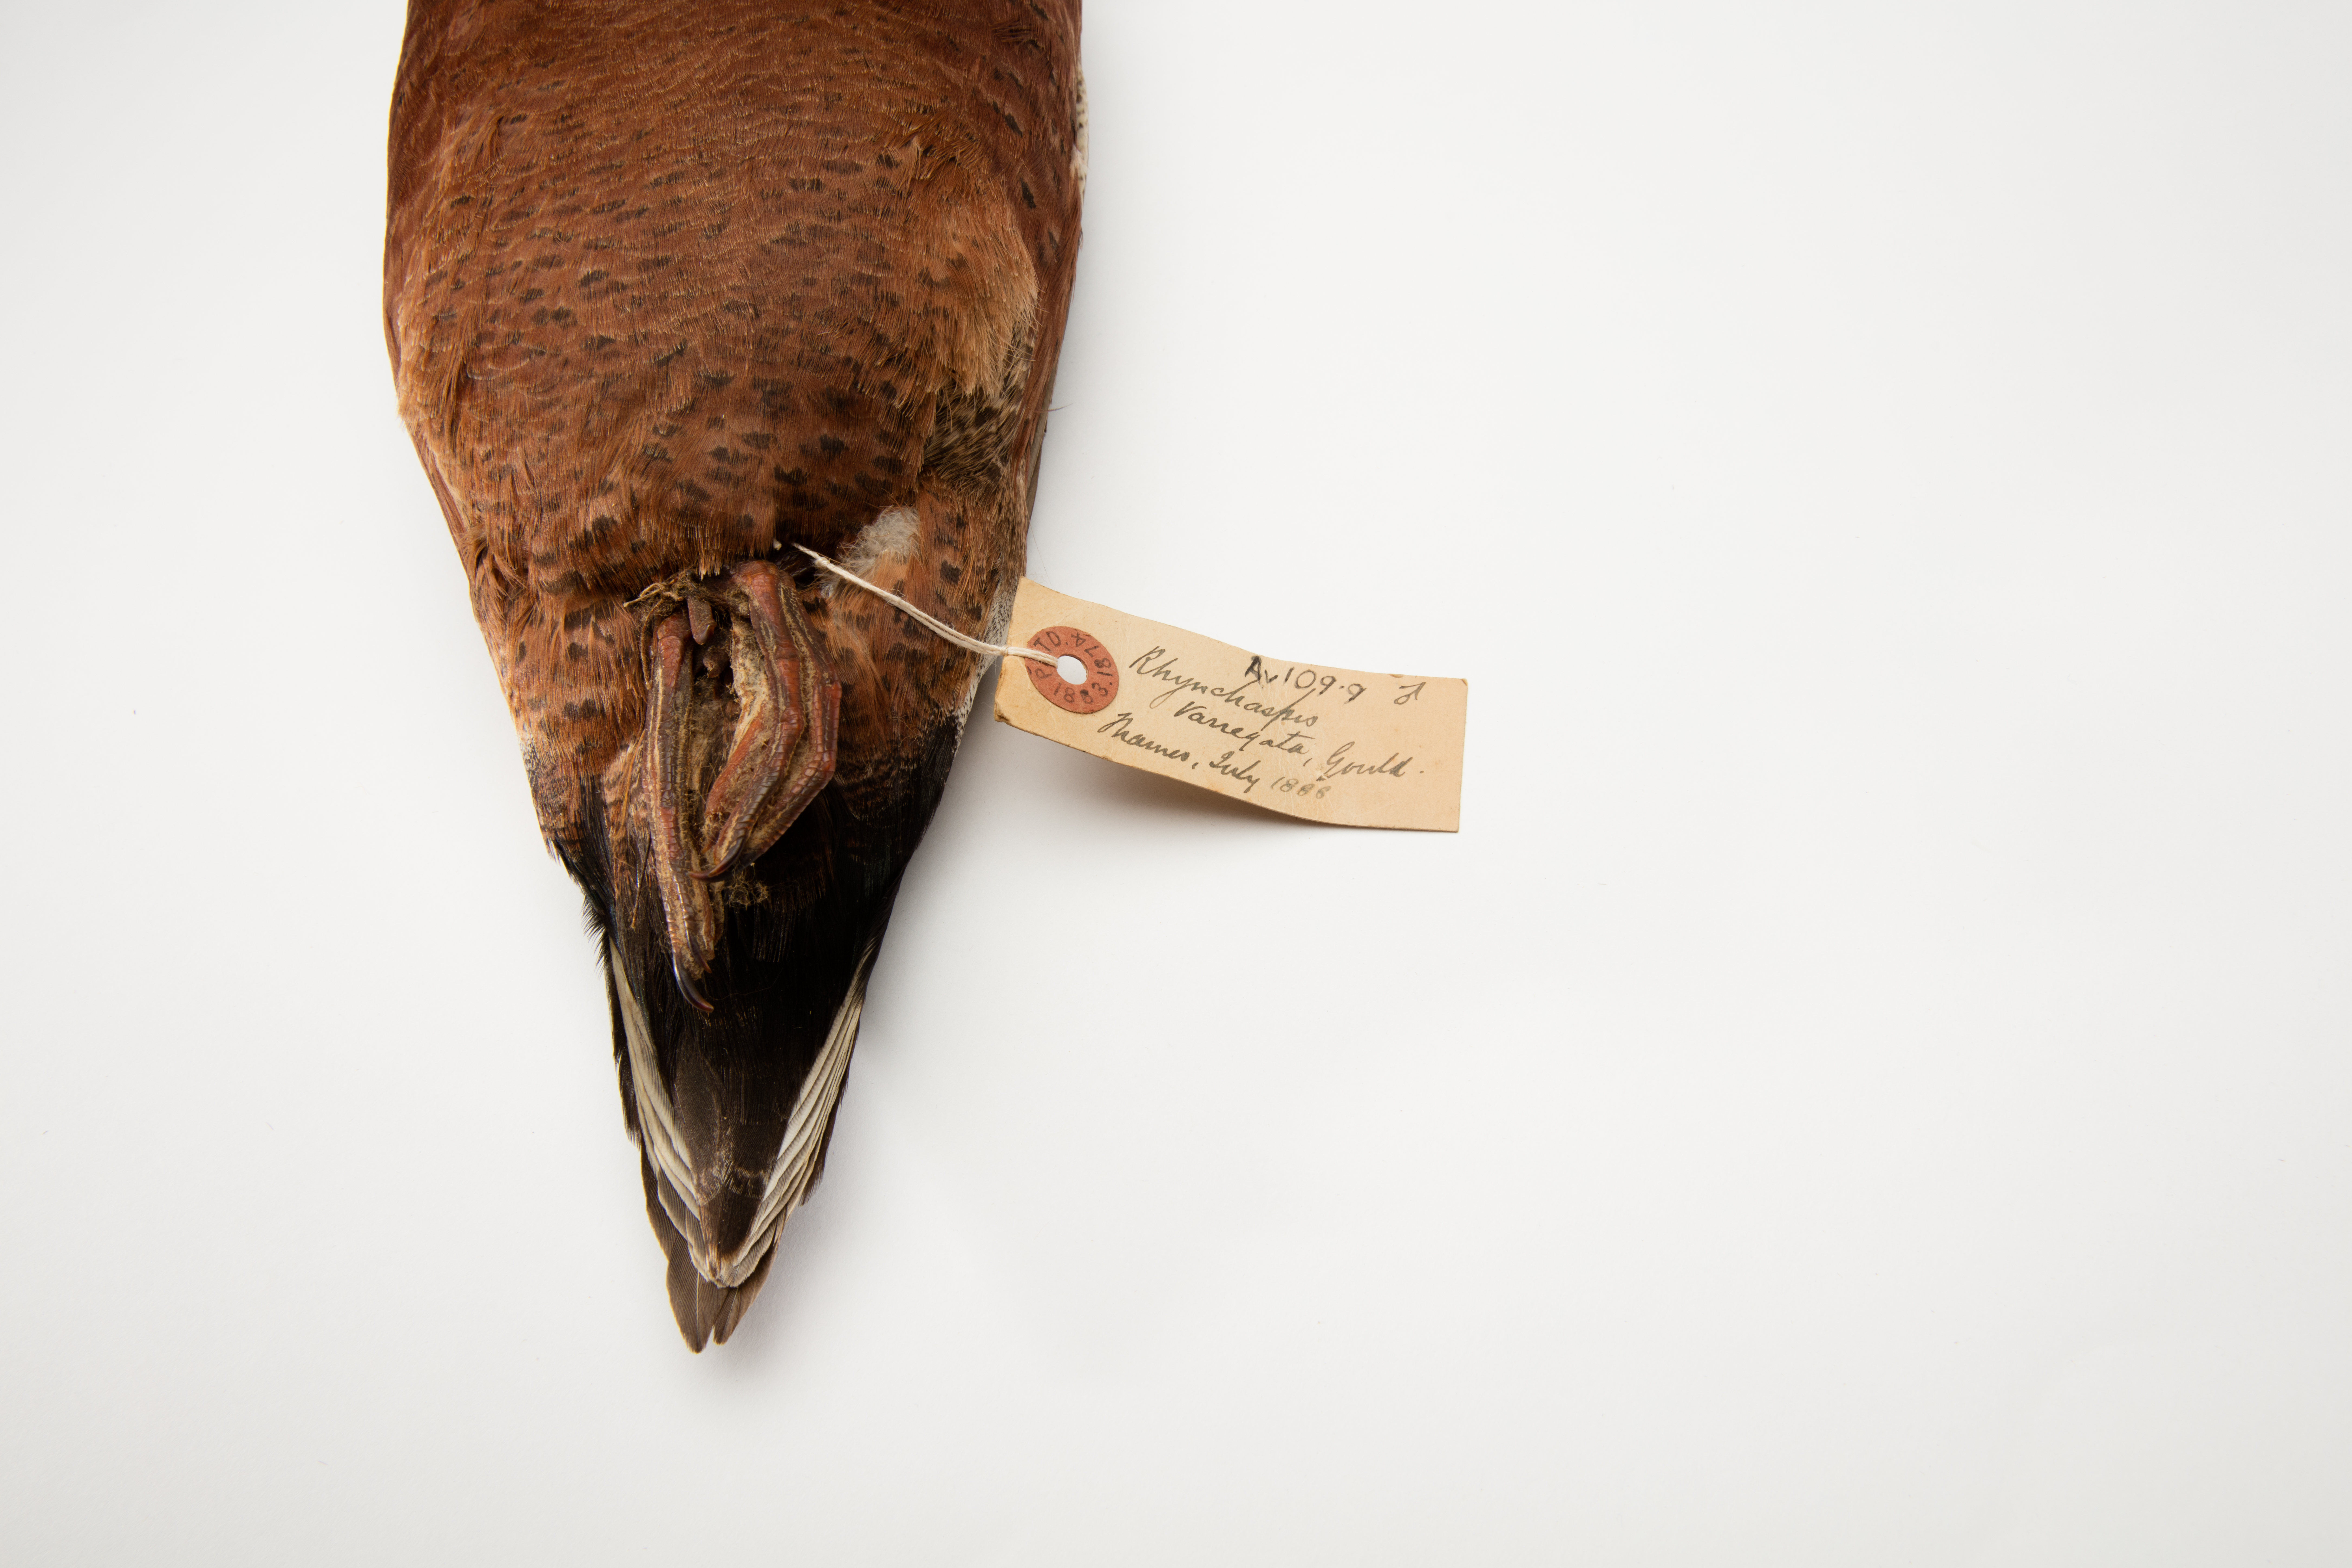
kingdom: Animalia
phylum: Chordata
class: Aves
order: Anseriformes
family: Anatidae
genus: Spatula
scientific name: Spatula rhynchotis
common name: Australian shoveler
